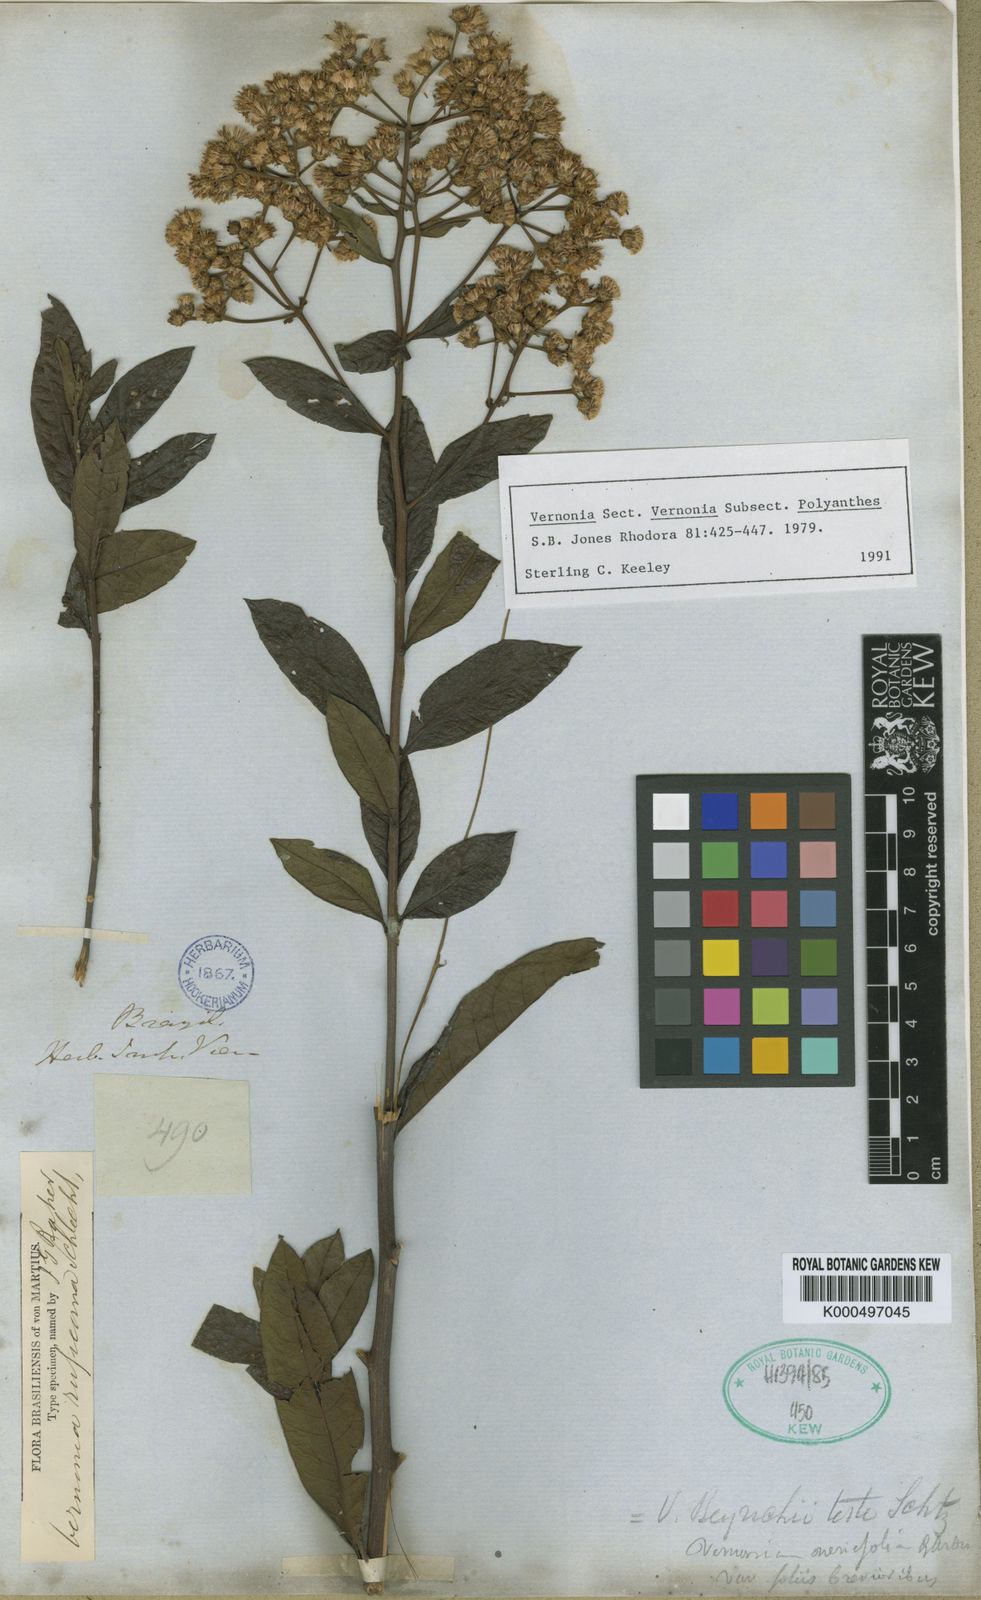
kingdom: Plantae
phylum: Tracheophyta
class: Magnoliopsida
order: Asterales
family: Asteraceae
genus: Vernonia
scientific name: Vernonia
